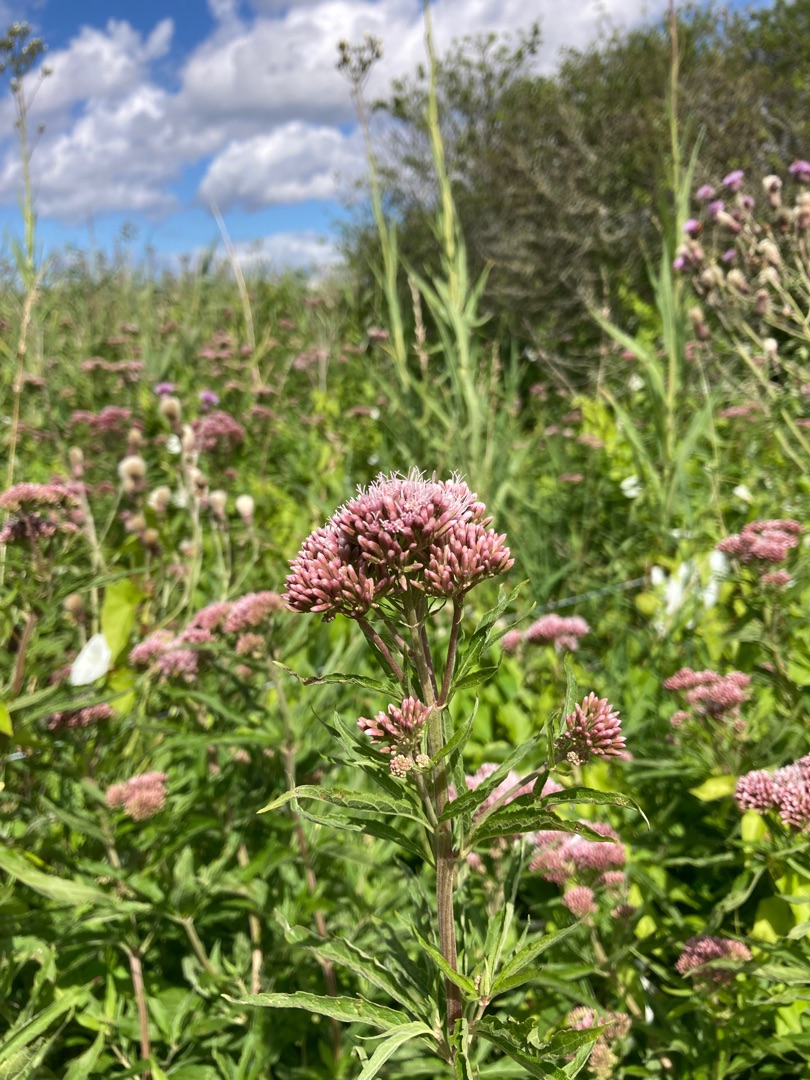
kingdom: Plantae
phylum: Tracheophyta
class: Magnoliopsida
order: Asterales
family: Asteraceae
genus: Eupatorium
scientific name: Eupatorium cannabinum
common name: Hjortetrøst
